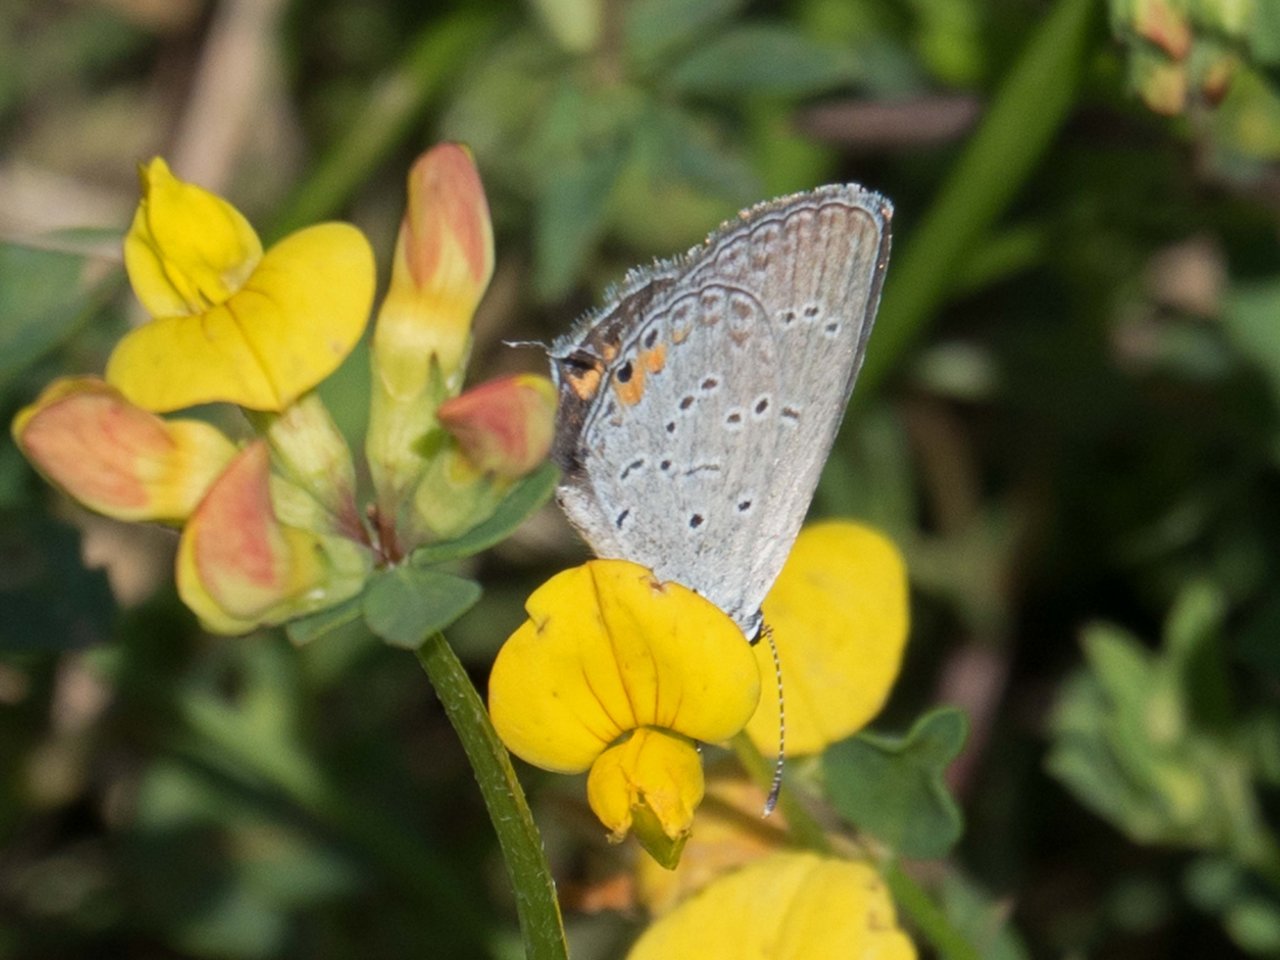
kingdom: Animalia
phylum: Arthropoda
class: Insecta
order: Lepidoptera
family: Lycaenidae
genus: Elkalyce
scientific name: Elkalyce comyntas
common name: Eastern Tailed-Blue
